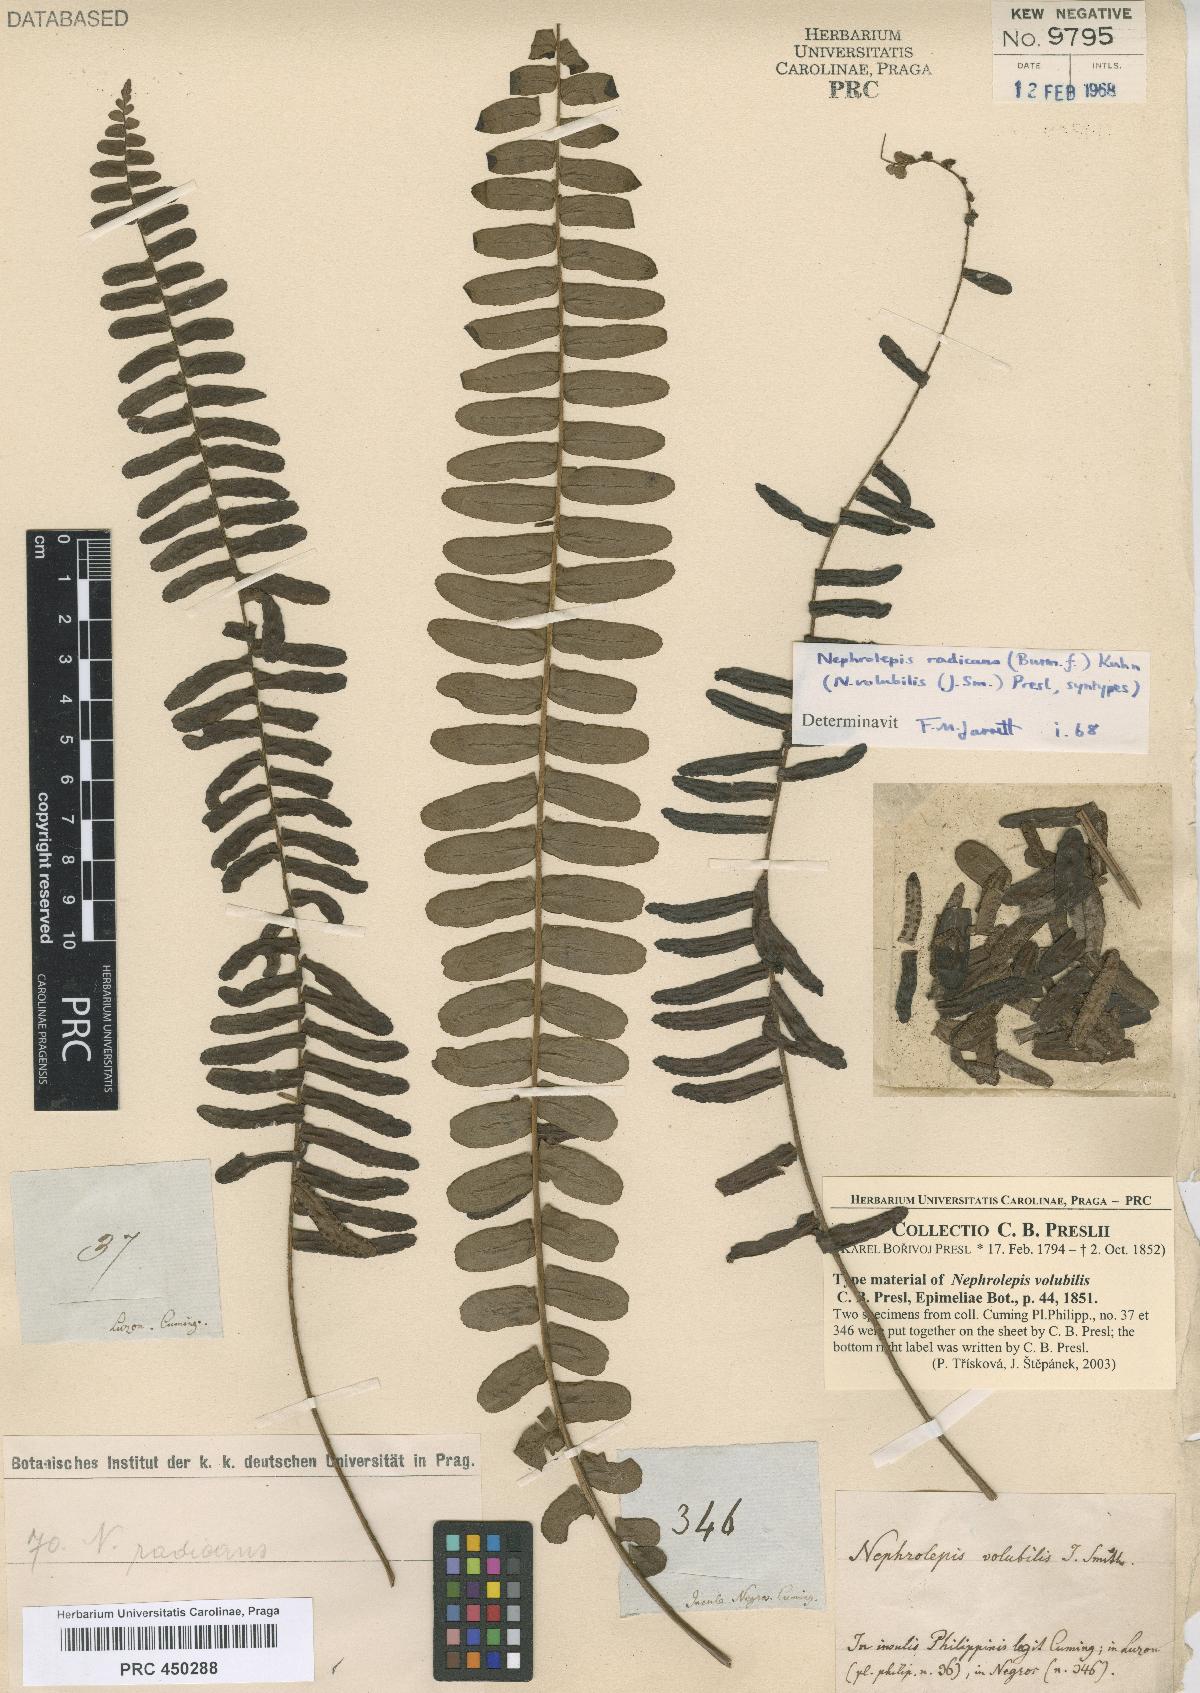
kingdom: Plantae
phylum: Tracheophyta
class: Polypodiopsida
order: Polypodiales
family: Nephrolepidaceae
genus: Nephrolepis
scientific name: Nephrolepis radicans
